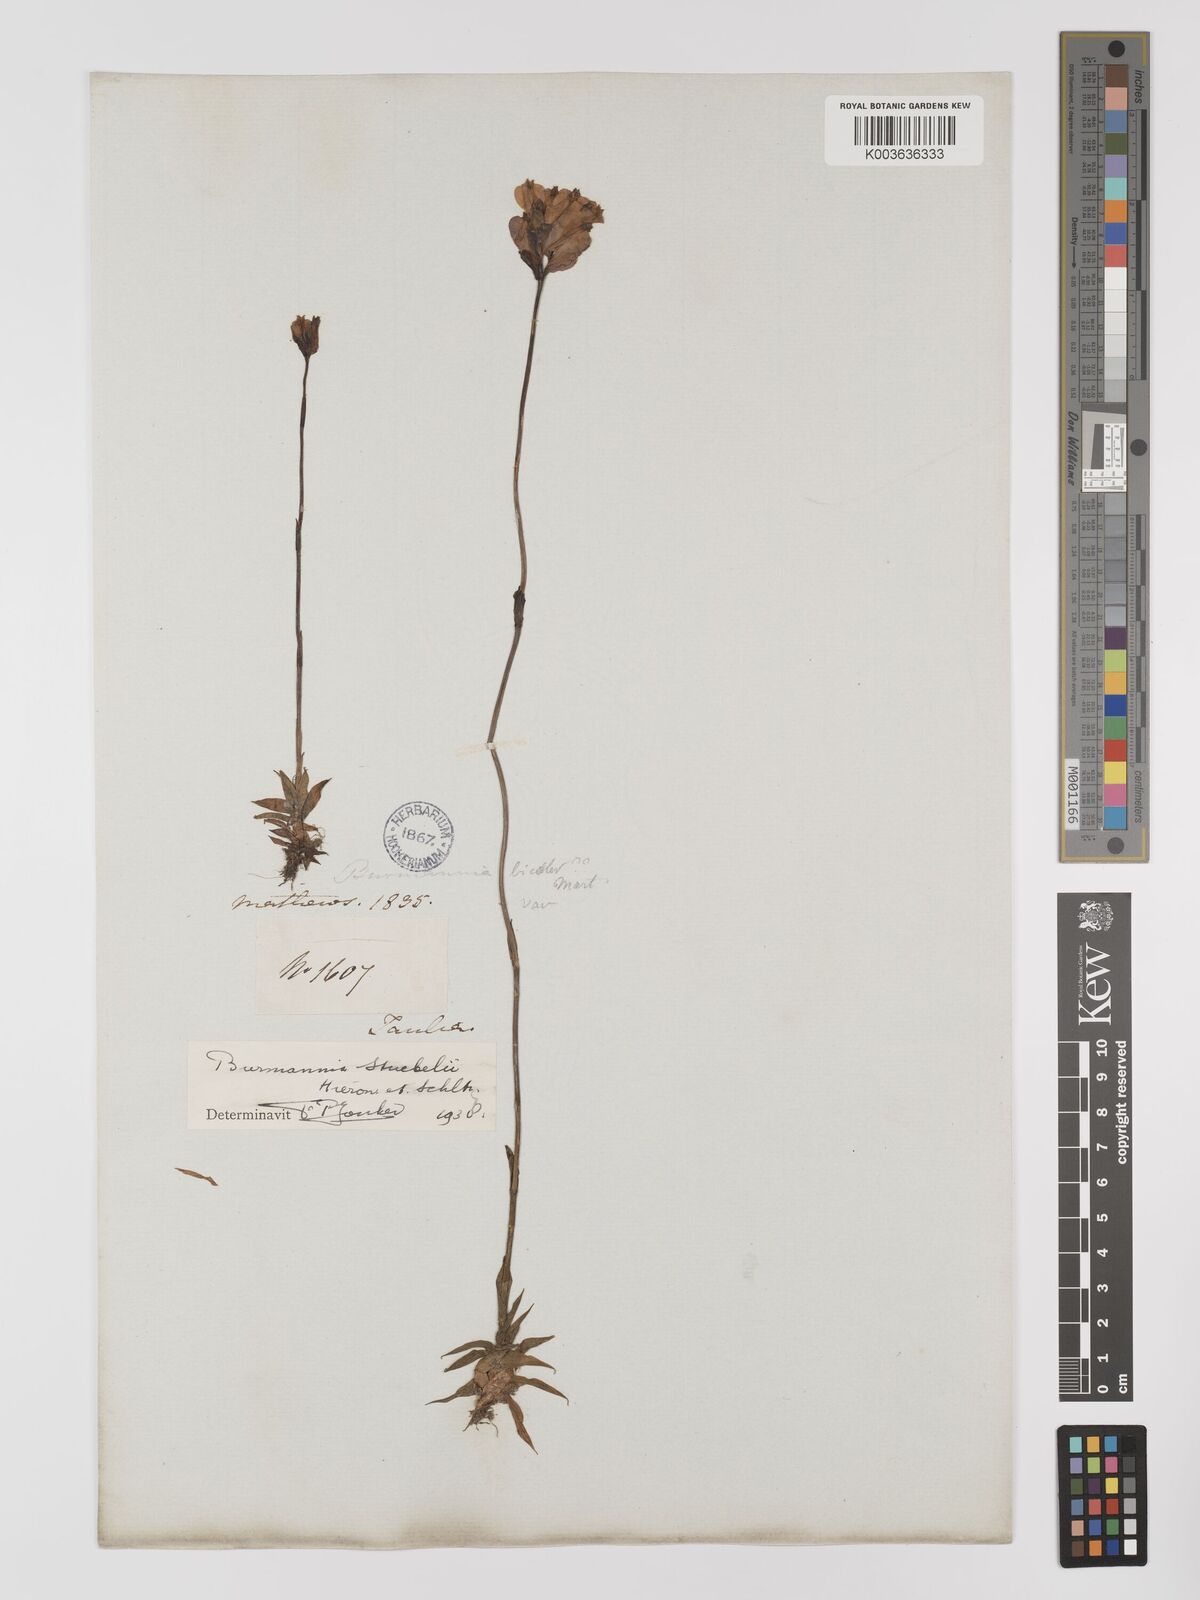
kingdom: Plantae
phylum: Tracheophyta
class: Liliopsida
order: Dioscoreales
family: Burmanniaceae
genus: Burmannia
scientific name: Burmannia stuebelii
